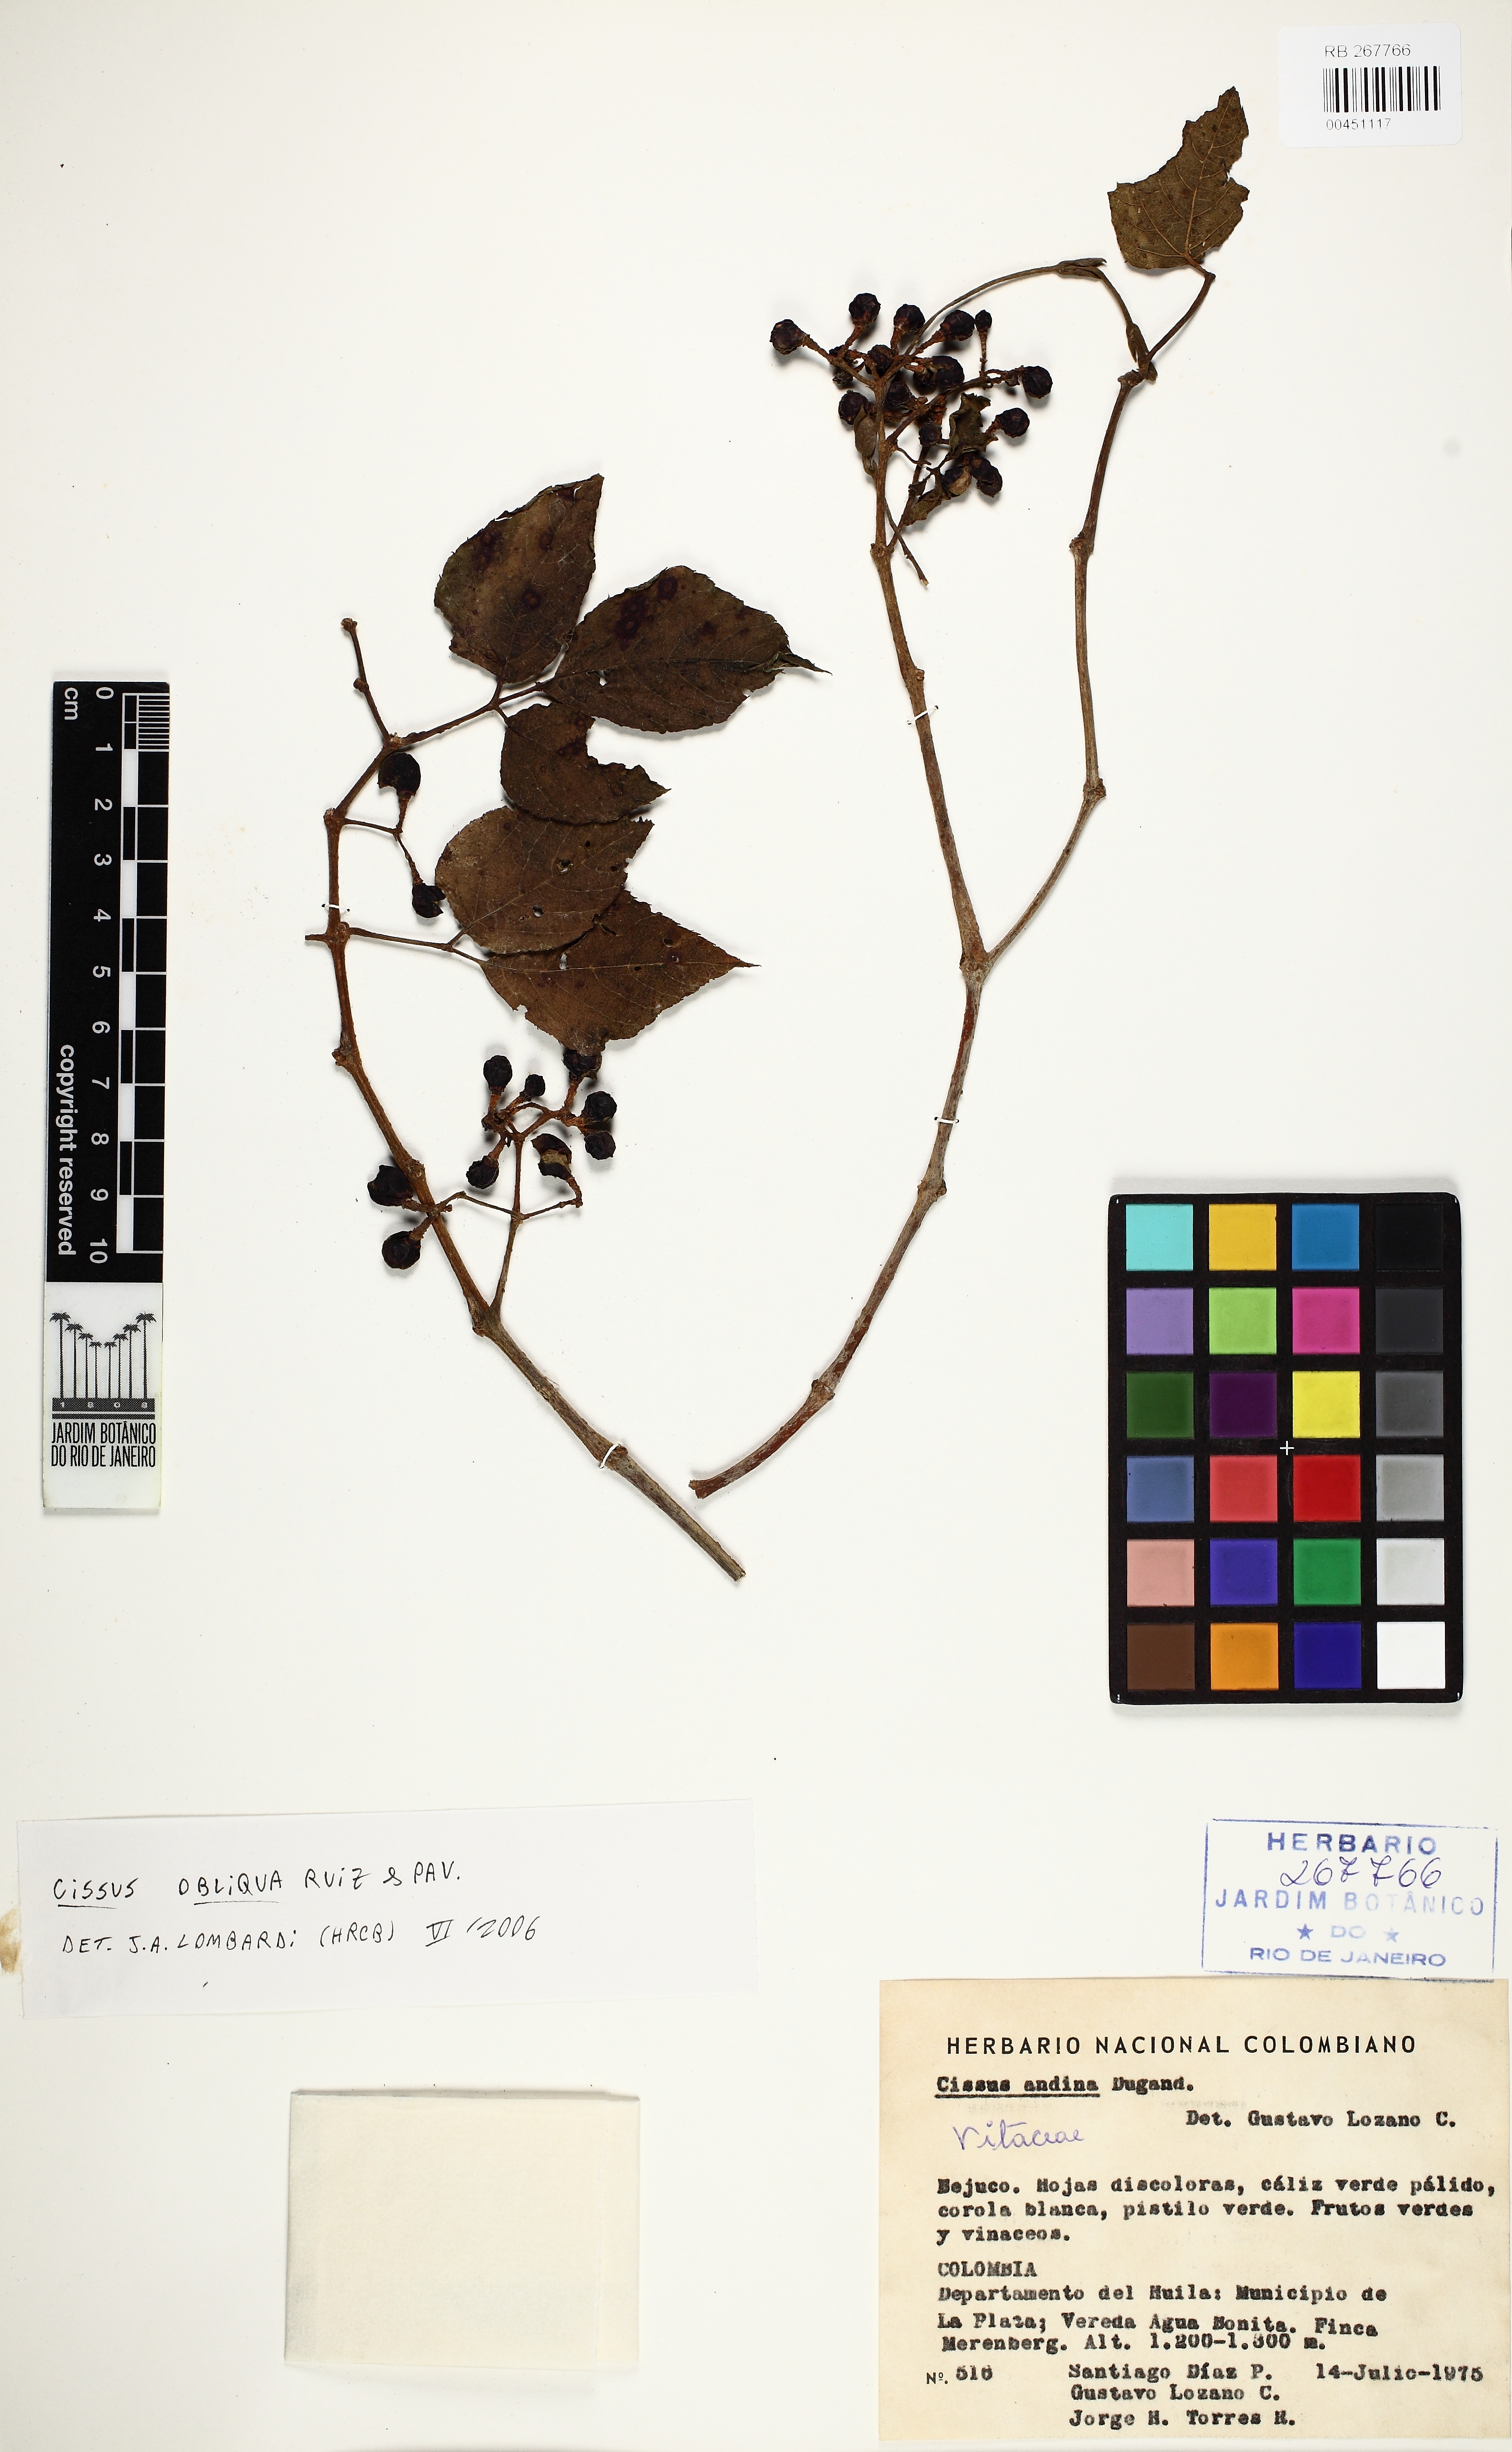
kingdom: Plantae
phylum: Tracheophyta
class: Magnoliopsida
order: Vitales
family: Vitaceae
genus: Cissus
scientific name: Cissus obliqua
